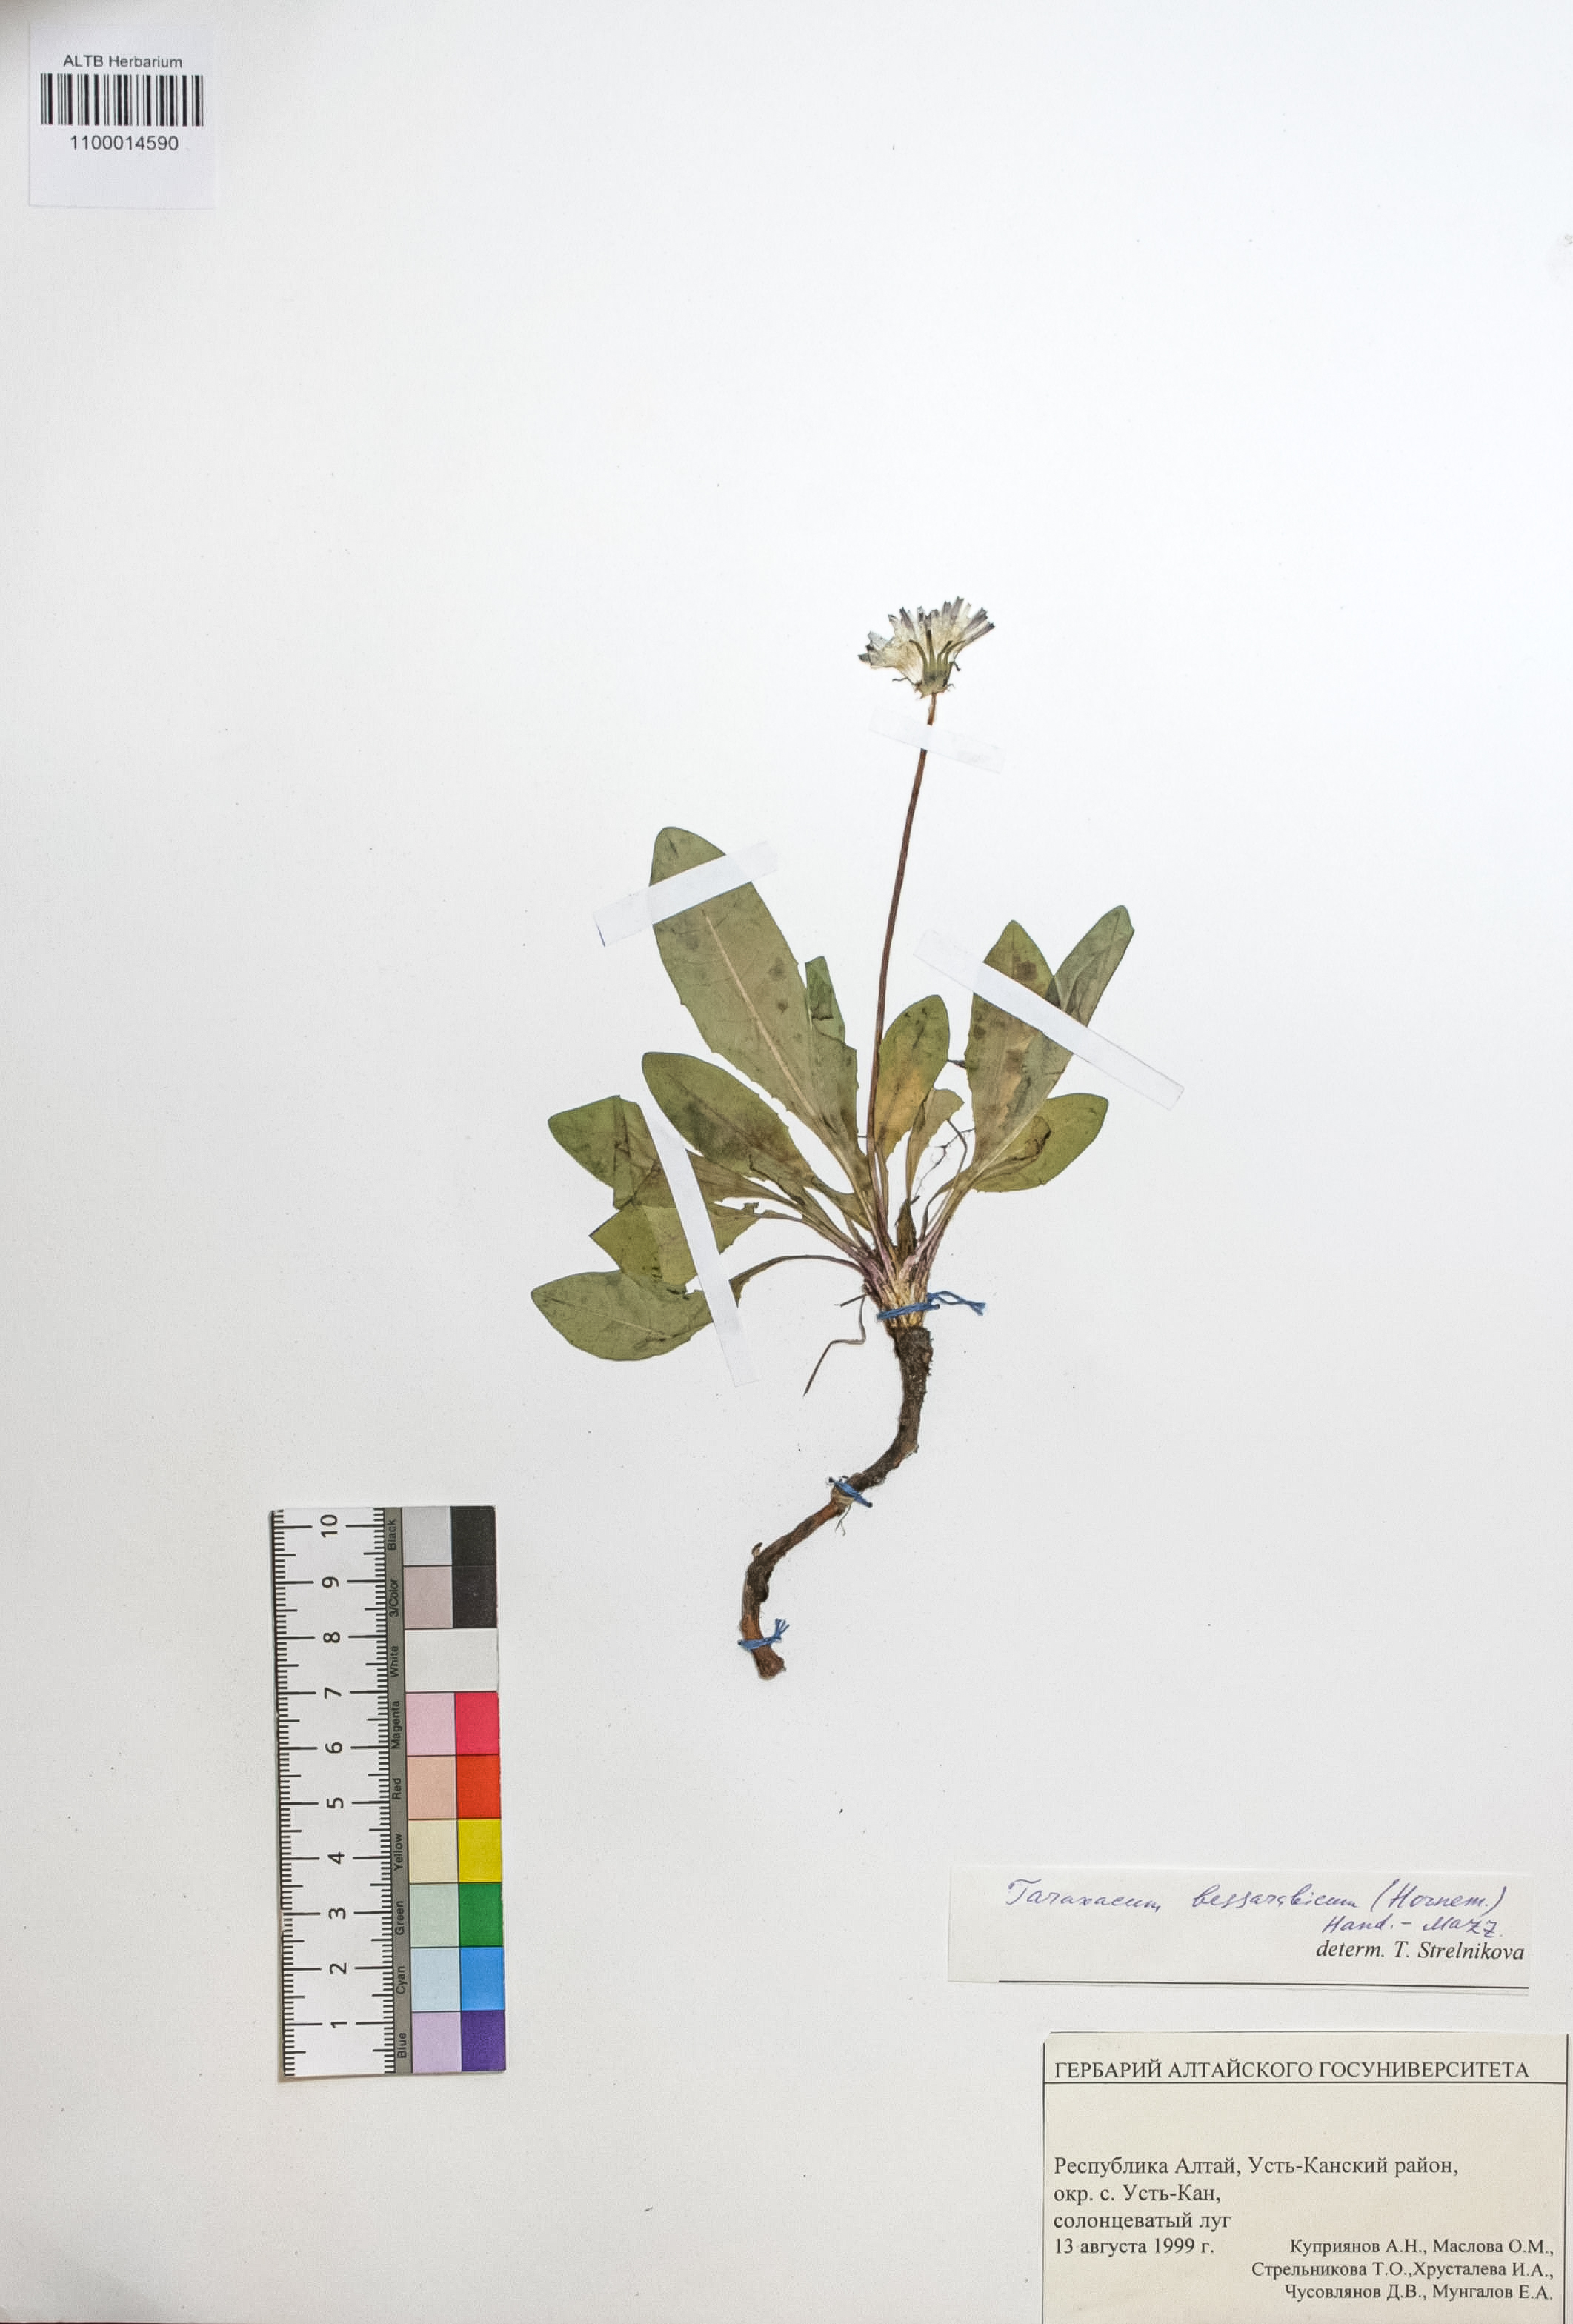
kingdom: Plantae
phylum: Tracheophyta
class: Magnoliopsida
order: Asterales
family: Asteraceae
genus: Taraxacum
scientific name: Taraxacum bessarabicum
